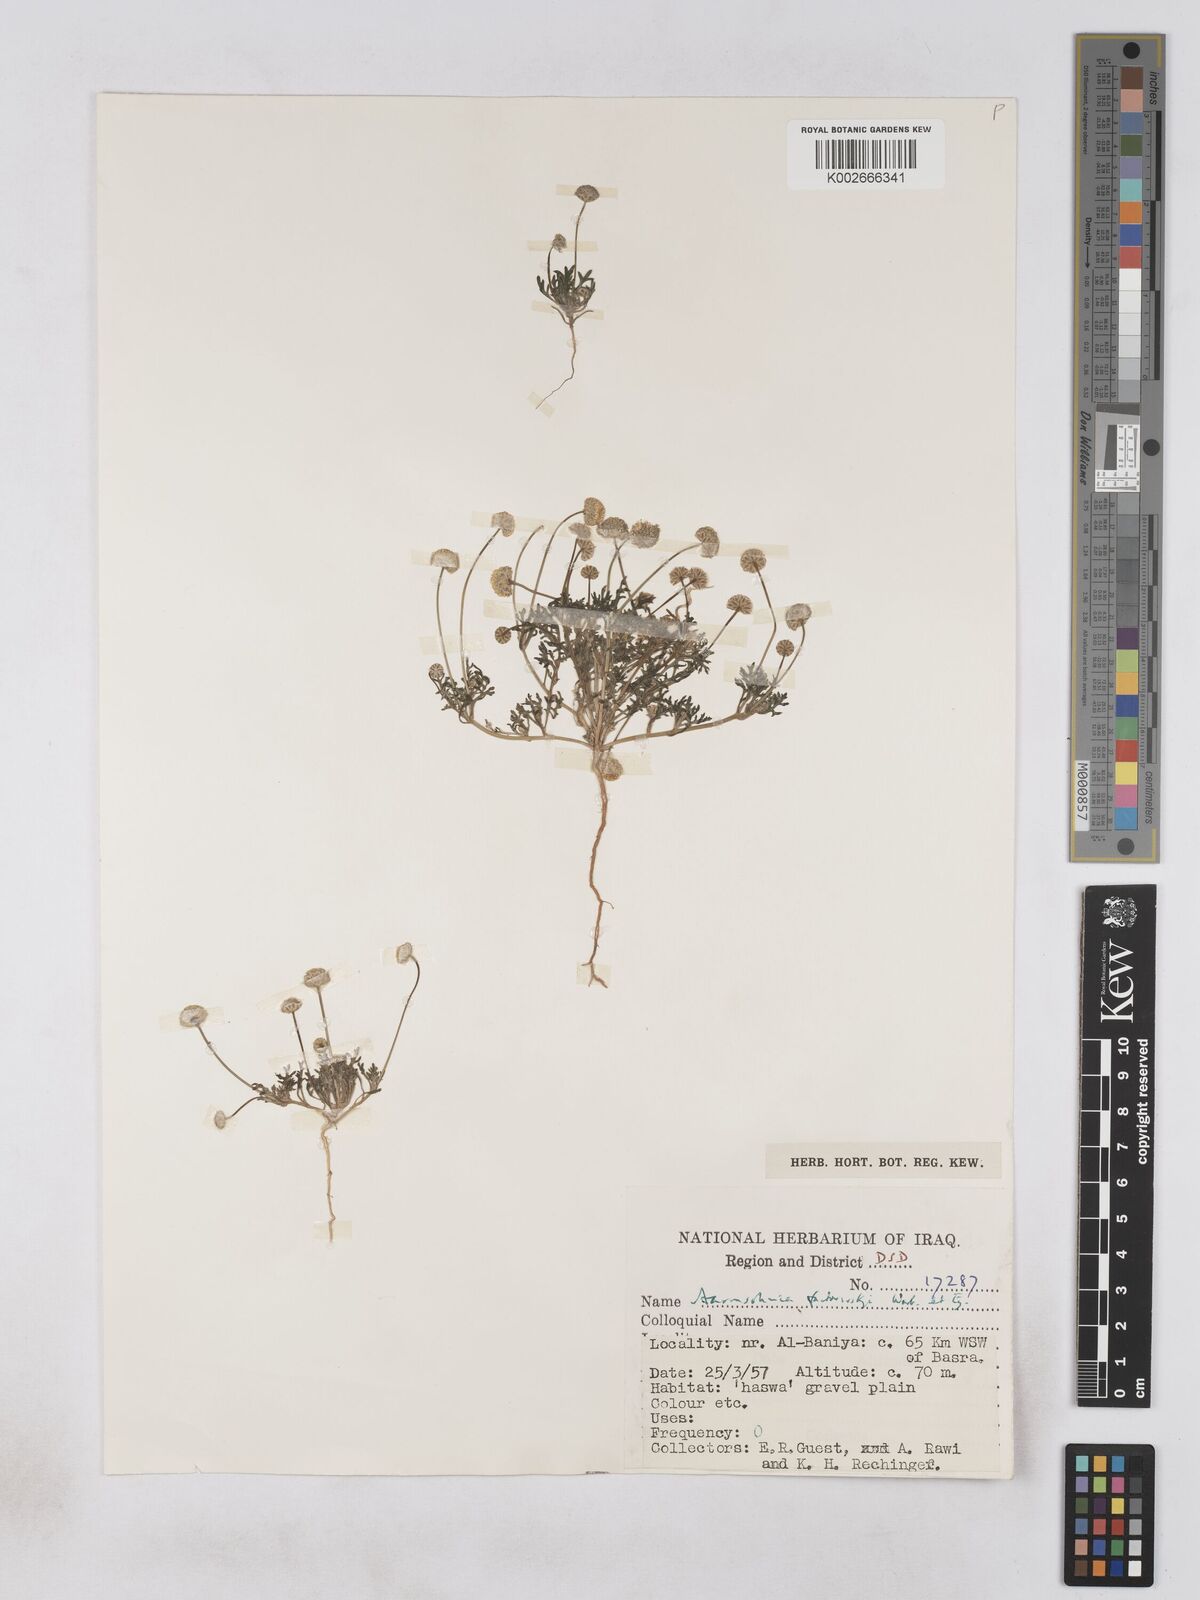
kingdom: Plantae
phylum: Tracheophyta
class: Magnoliopsida
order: Asterales
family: Asteraceae
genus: Otoglyphis
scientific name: Otoglyphis factorovskyi
